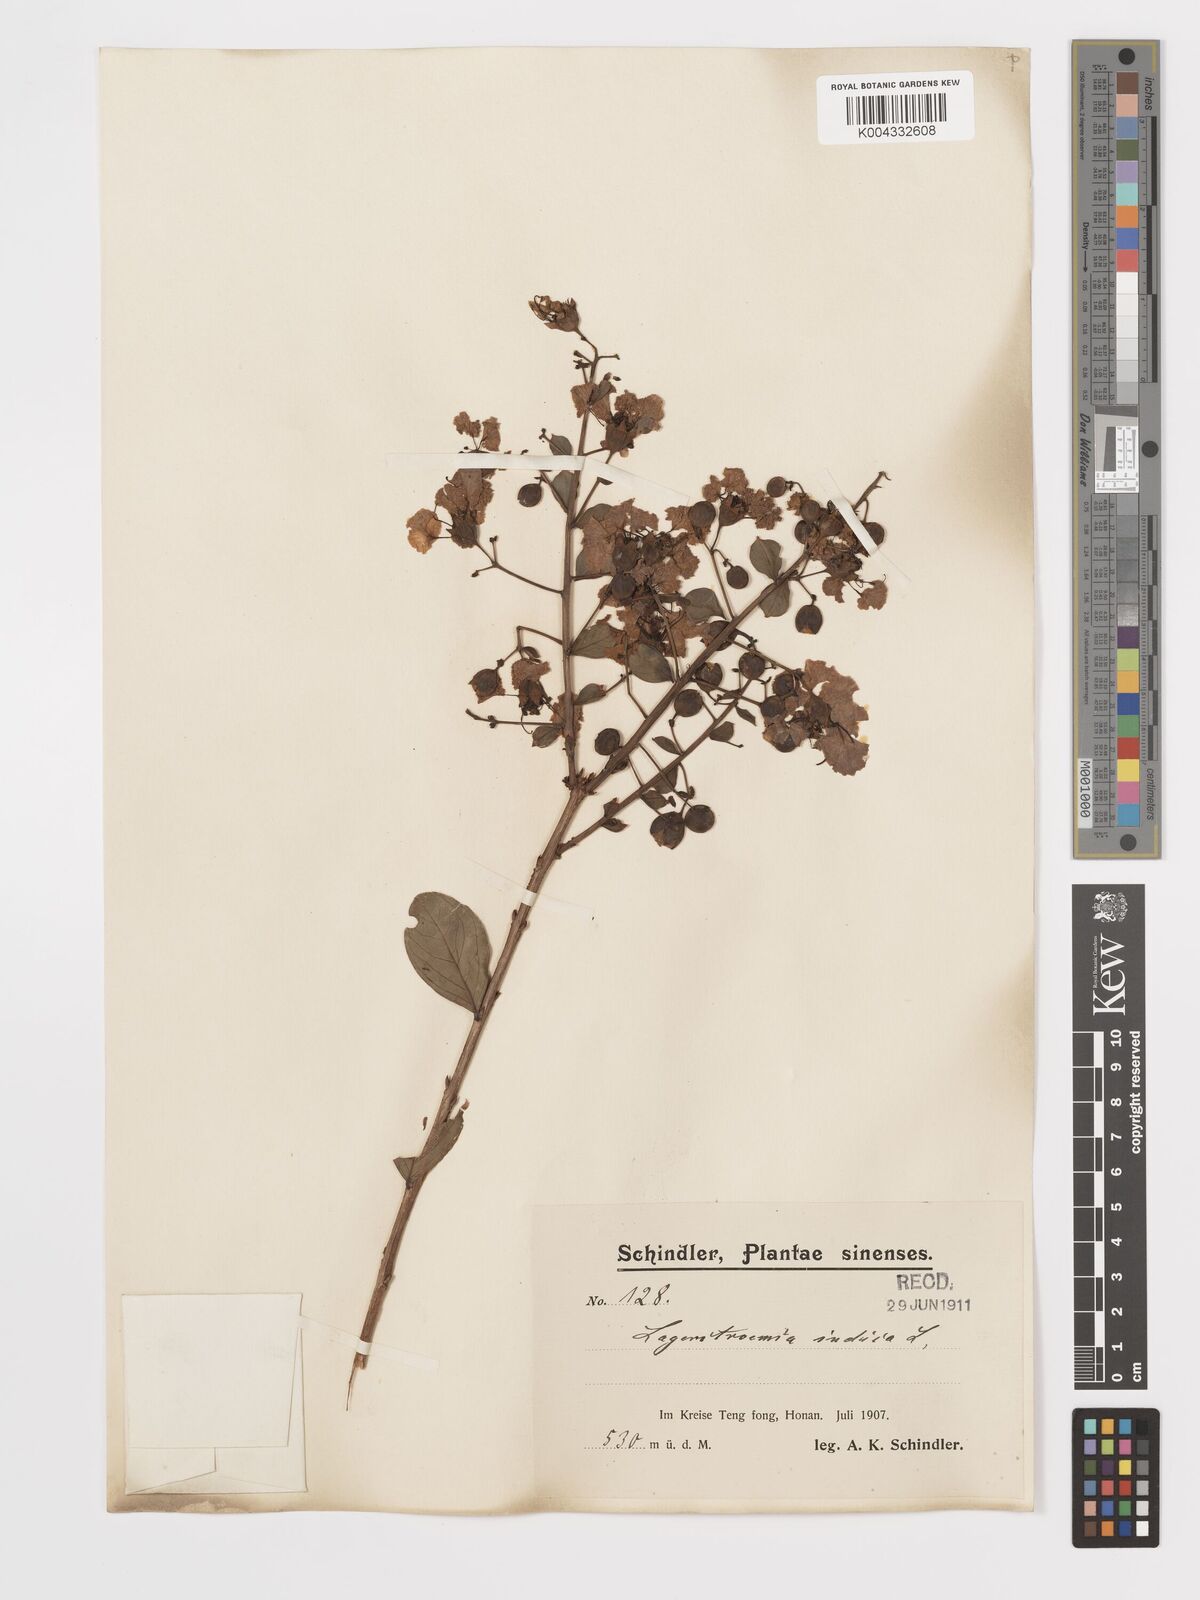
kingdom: Plantae
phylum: Tracheophyta
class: Magnoliopsida
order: Myrtales
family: Lythraceae
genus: Lagerstroemia
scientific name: Lagerstroemia indica
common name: Crape-myrtle
